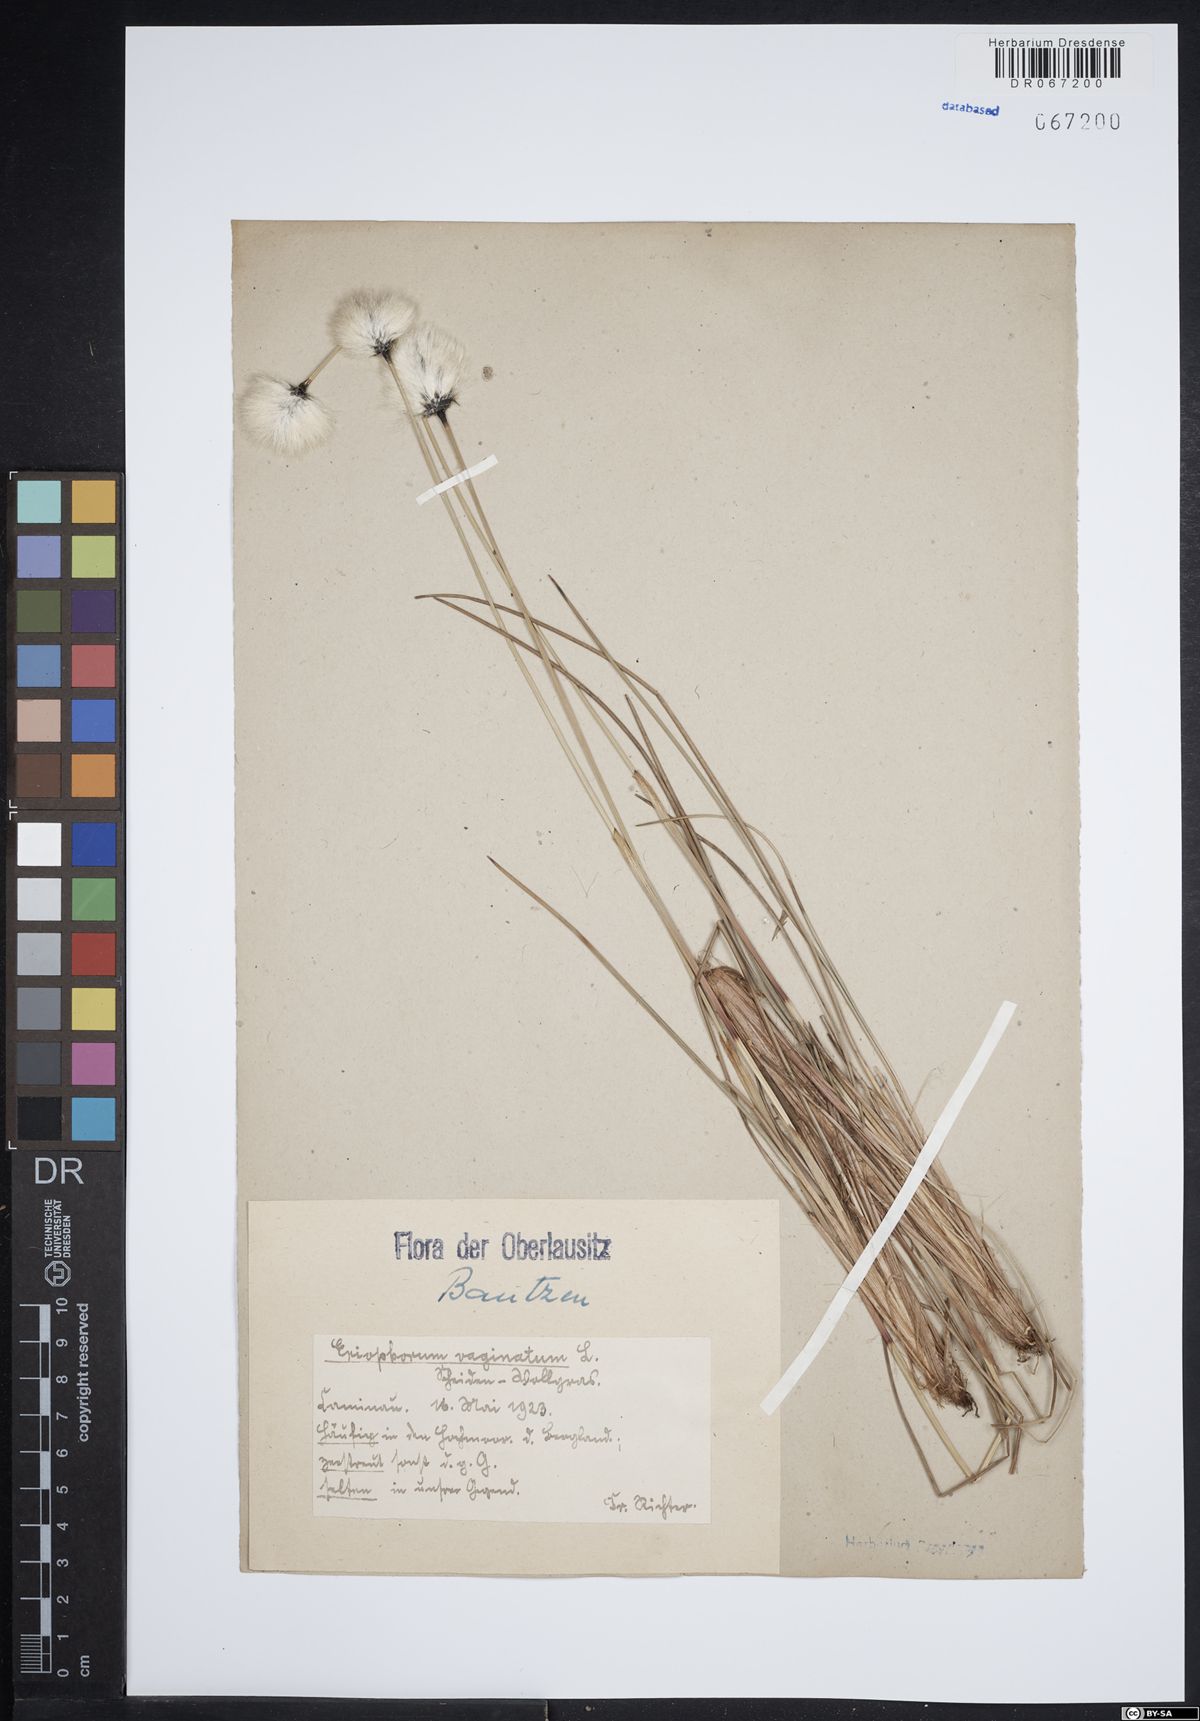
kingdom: Plantae
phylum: Tracheophyta
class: Liliopsida
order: Poales
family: Cyperaceae
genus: Eriophorum
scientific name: Eriophorum vaginatum
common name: Hare's-tail cottongrass
